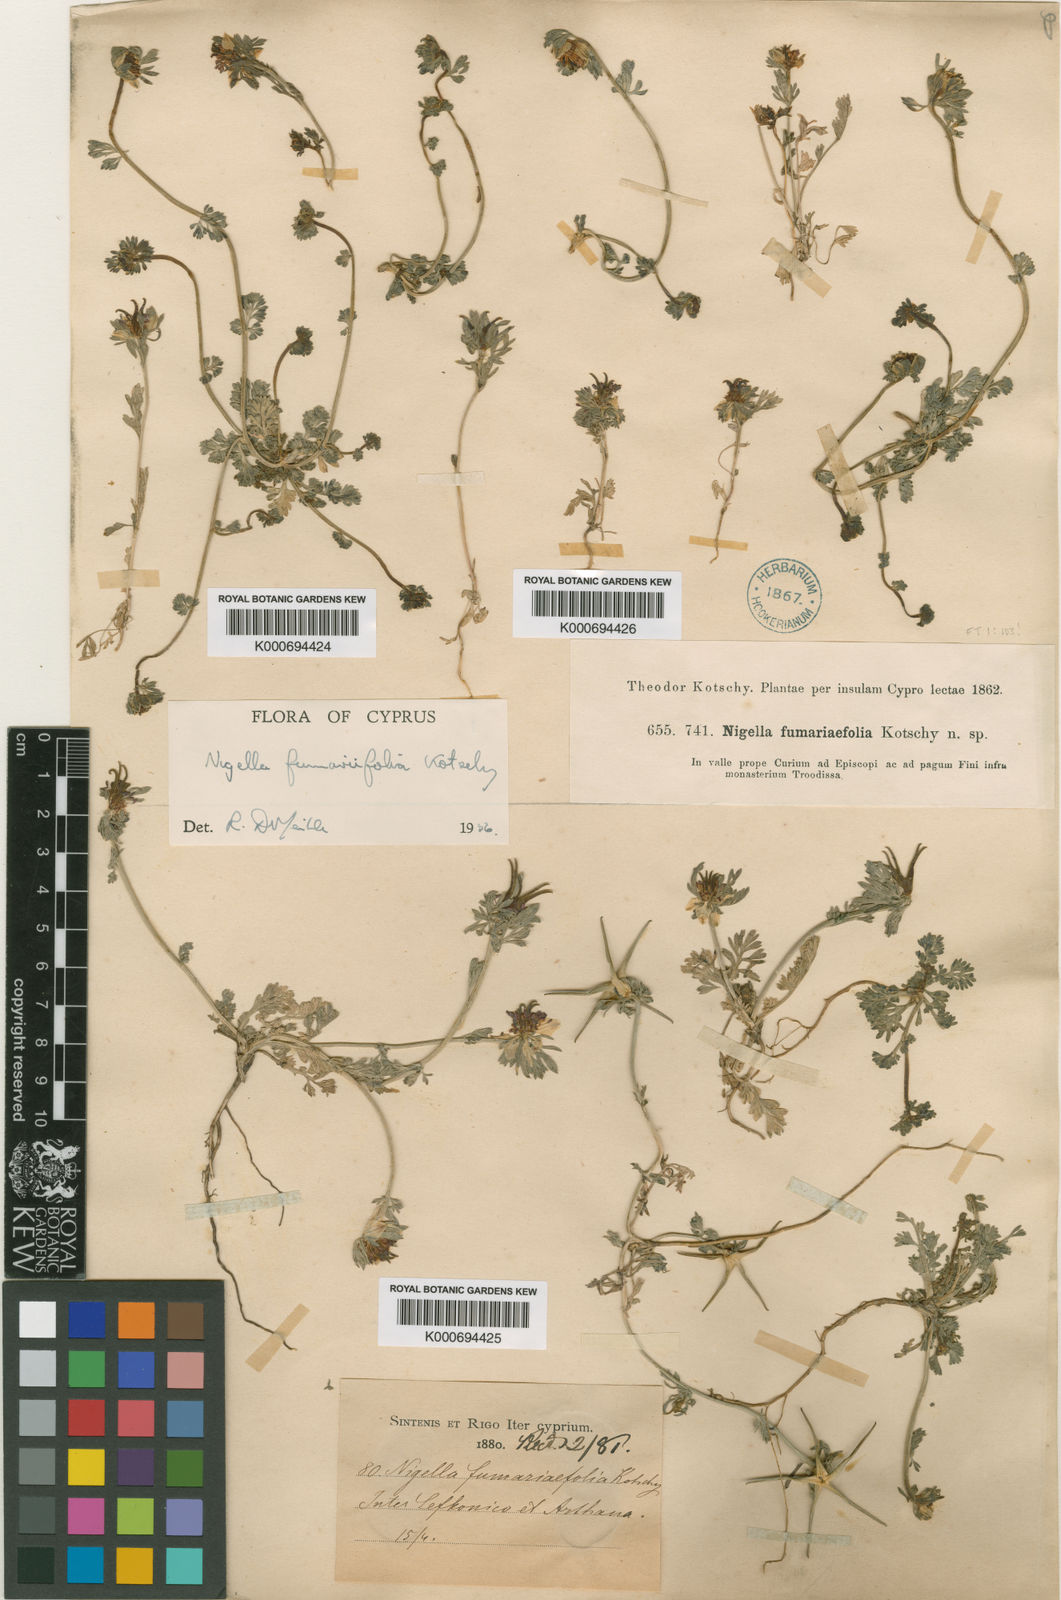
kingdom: Plantae
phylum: Tracheophyta
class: Magnoliopsida
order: Ranunculales
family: Ranunculaceae
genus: Nigella
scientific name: Nigella
